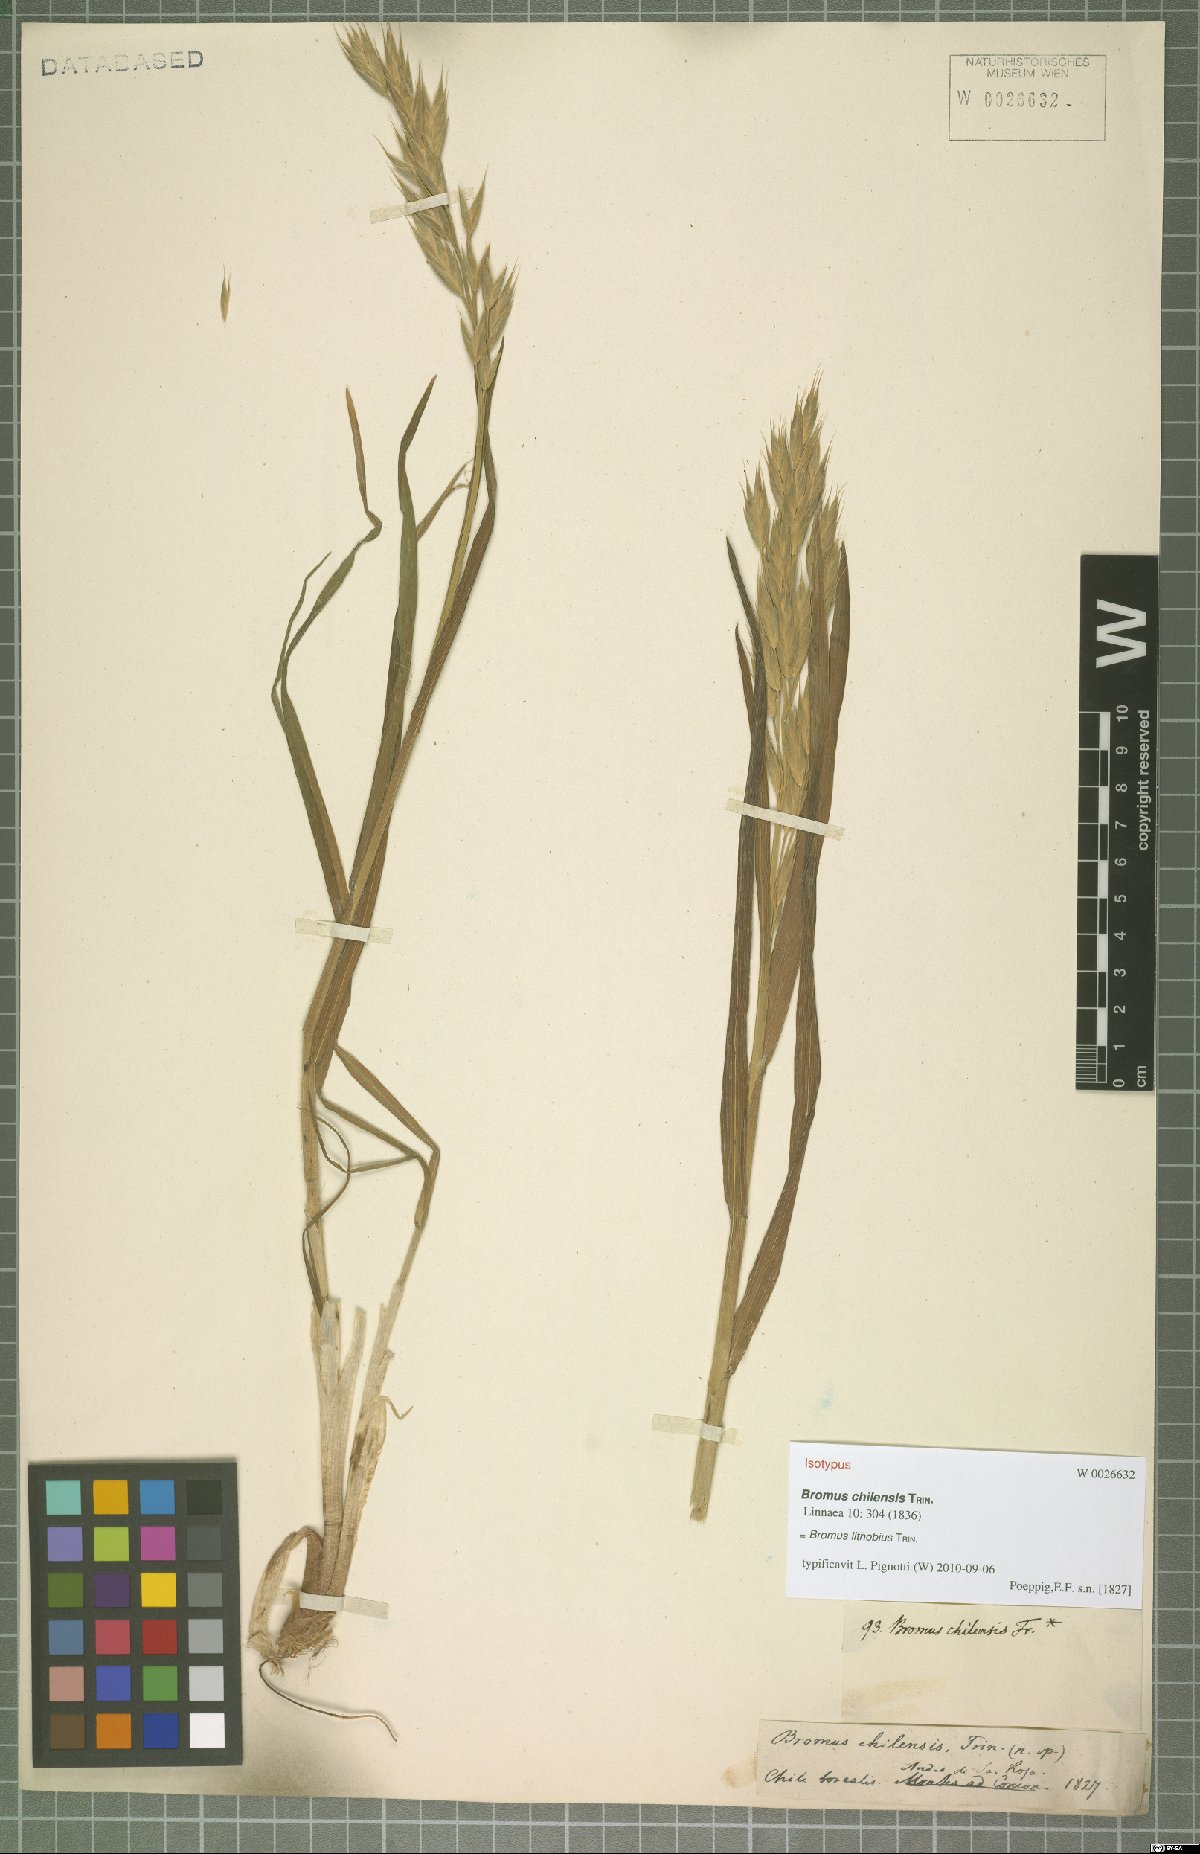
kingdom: Plantae
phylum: Tracheophyta
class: Liliopsida
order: Poales
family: Poaceae
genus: Bromus
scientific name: Bromus lithobius
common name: Chilean brome
